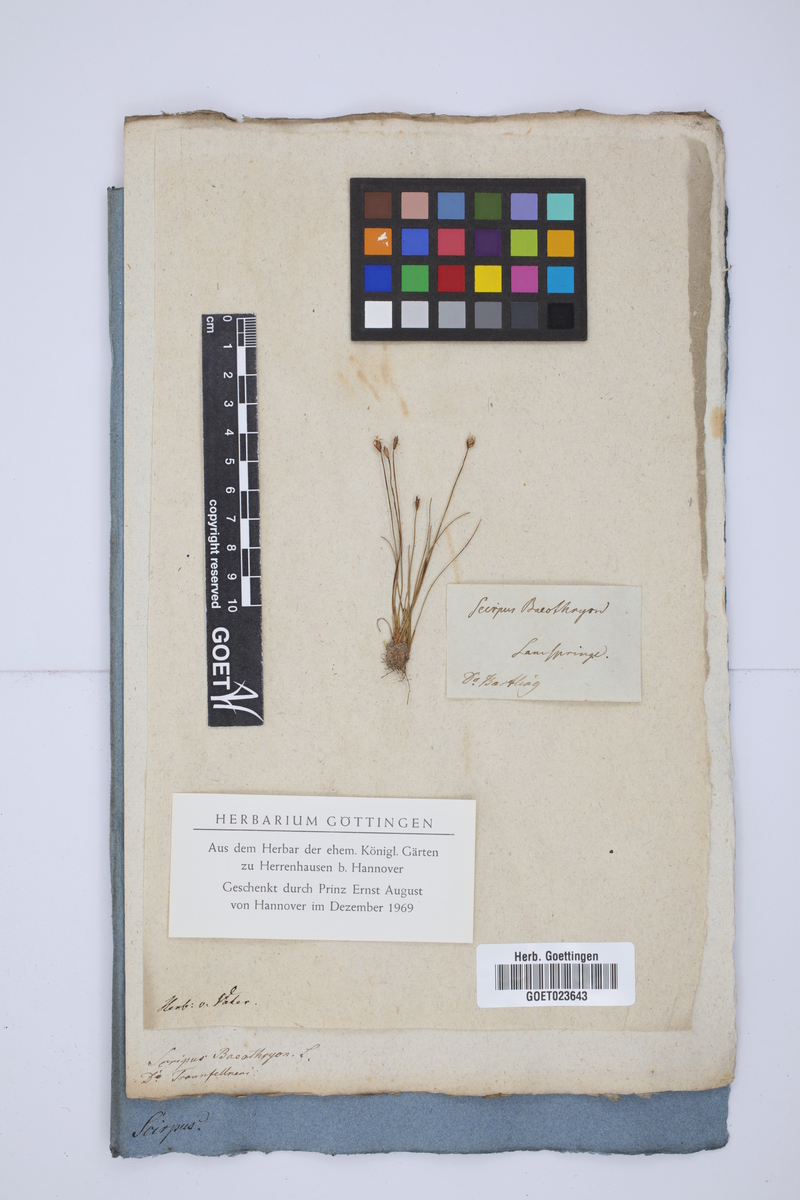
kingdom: Plantae
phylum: Tracheophyta
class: Liliopsida
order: Poales
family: Cyperaceae
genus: Eleocharis
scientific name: Eleocharis quinqueflora
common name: Few-flowered spike-rush
